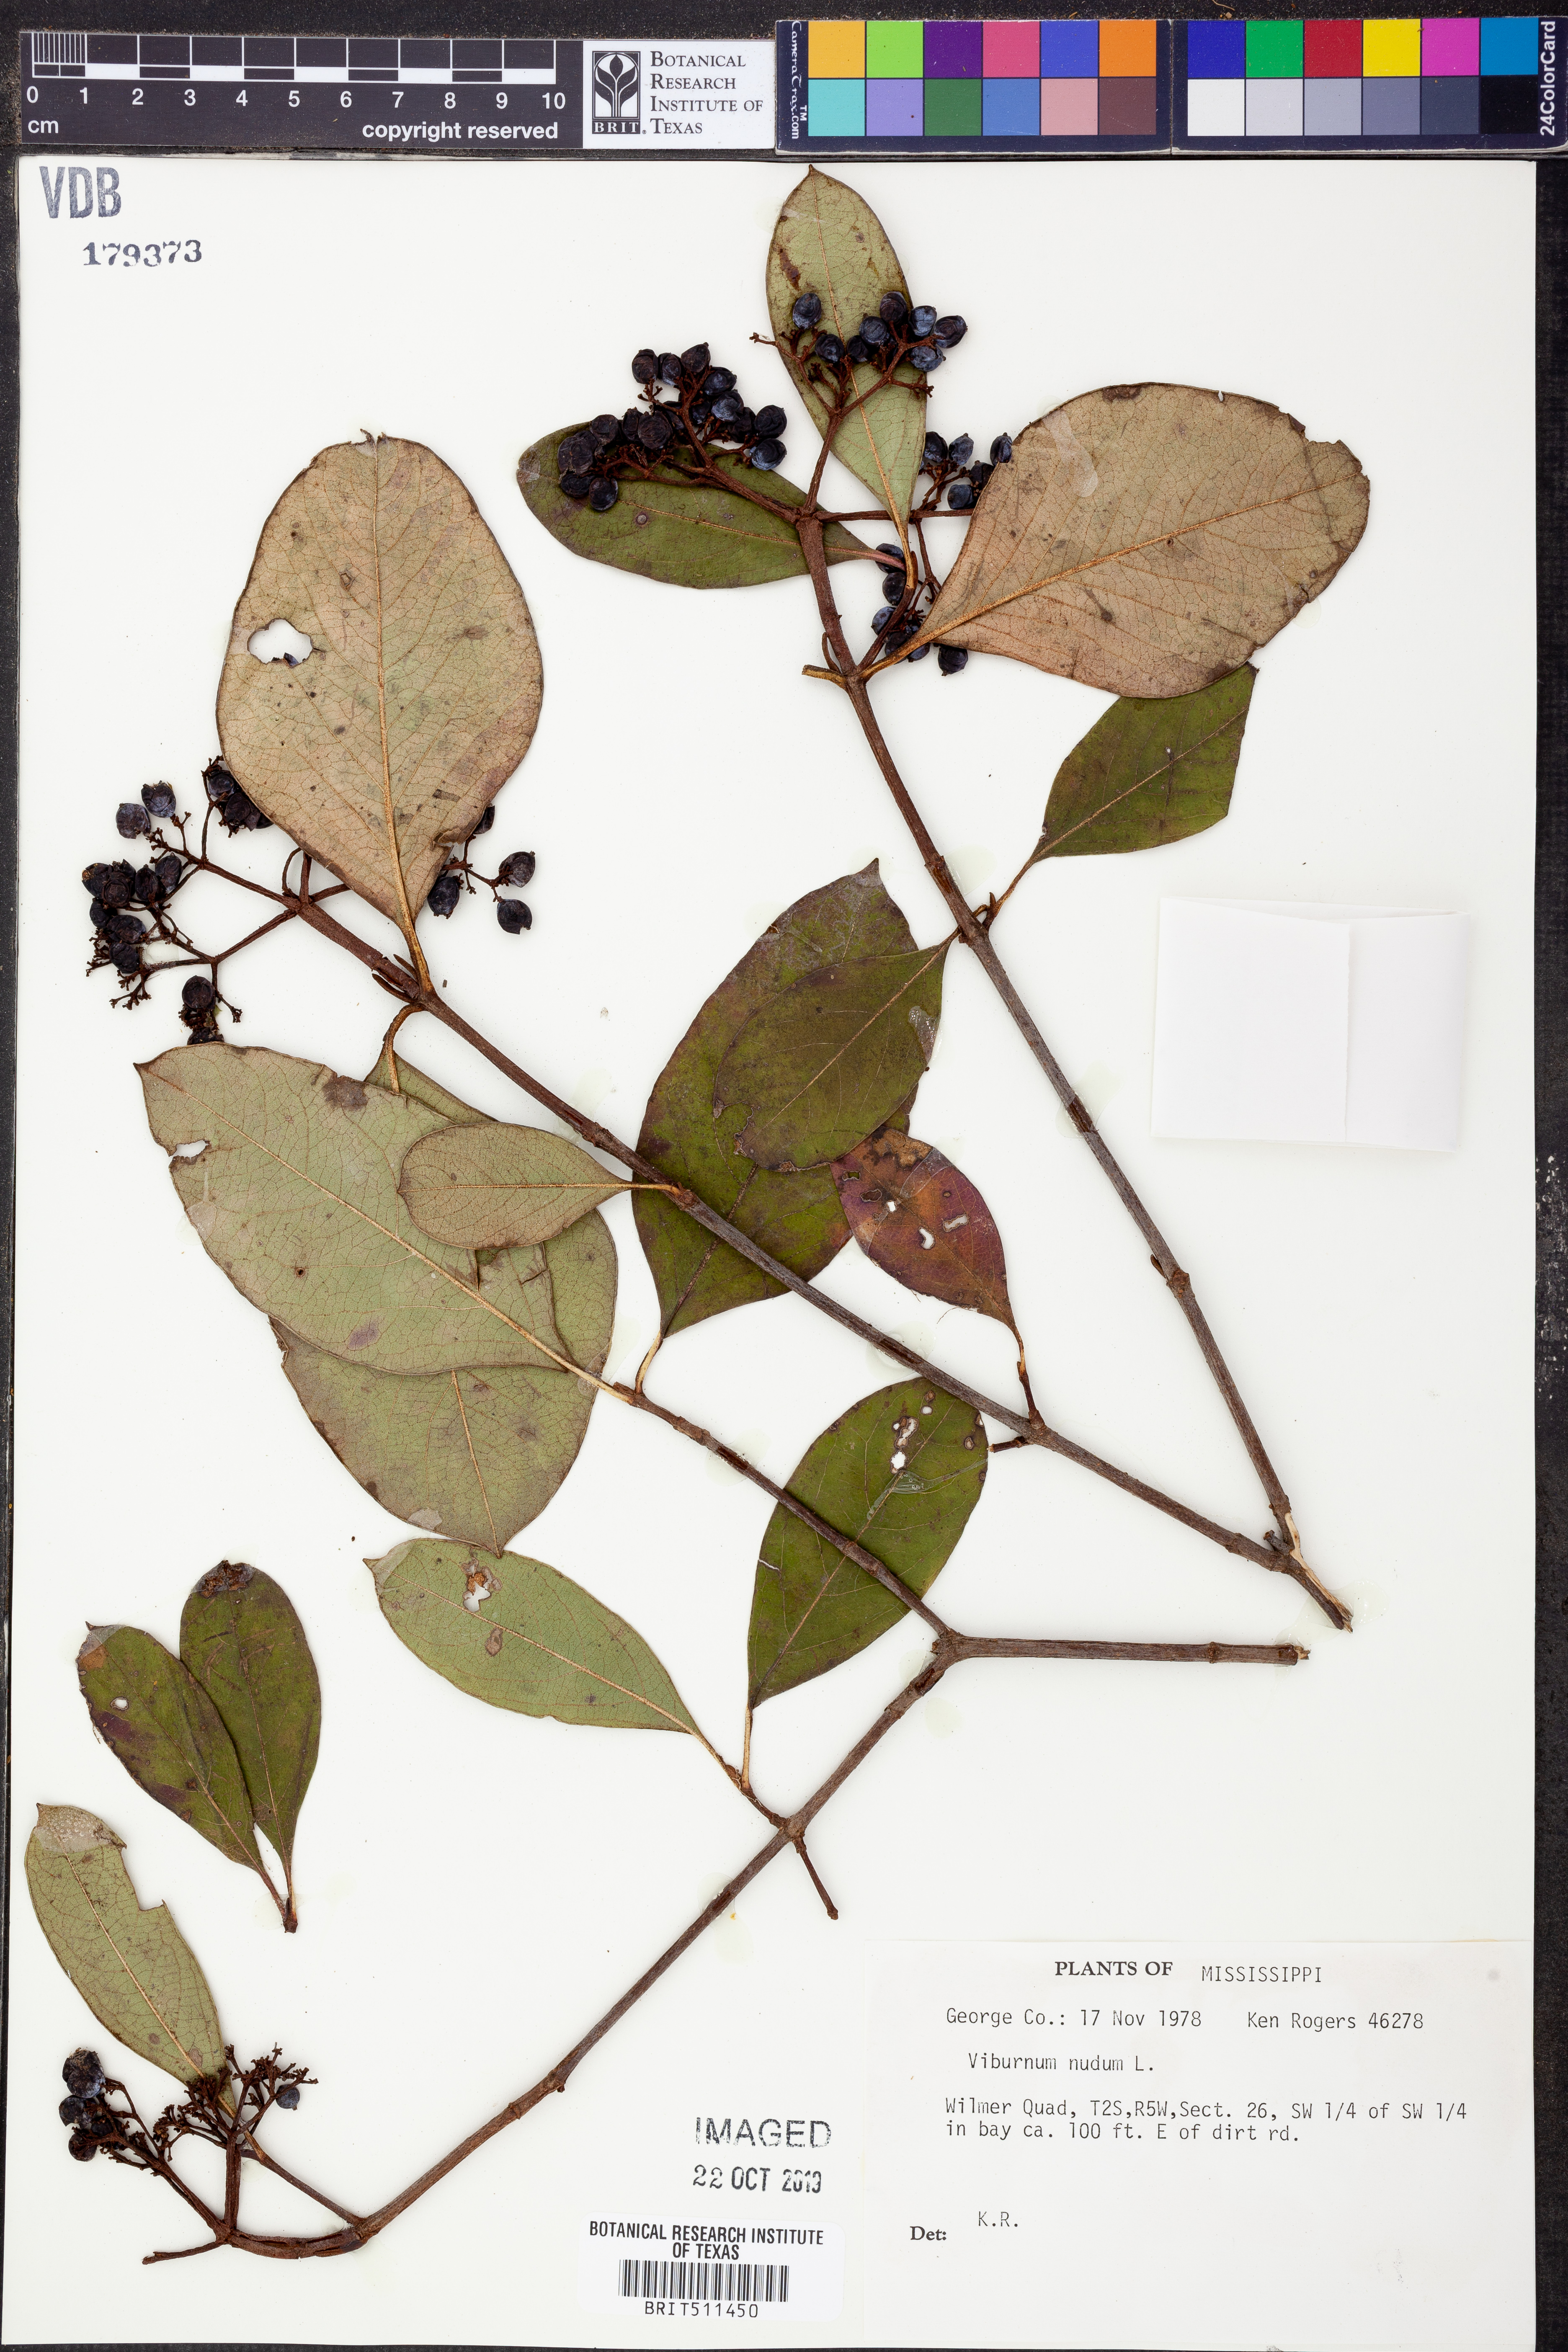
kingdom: Plantae
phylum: Tracheophyta
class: Magnoliopsida
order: Dipsacales
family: Viburnaceae
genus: Viburnum
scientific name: Viburnum nudum
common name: Possum haw
